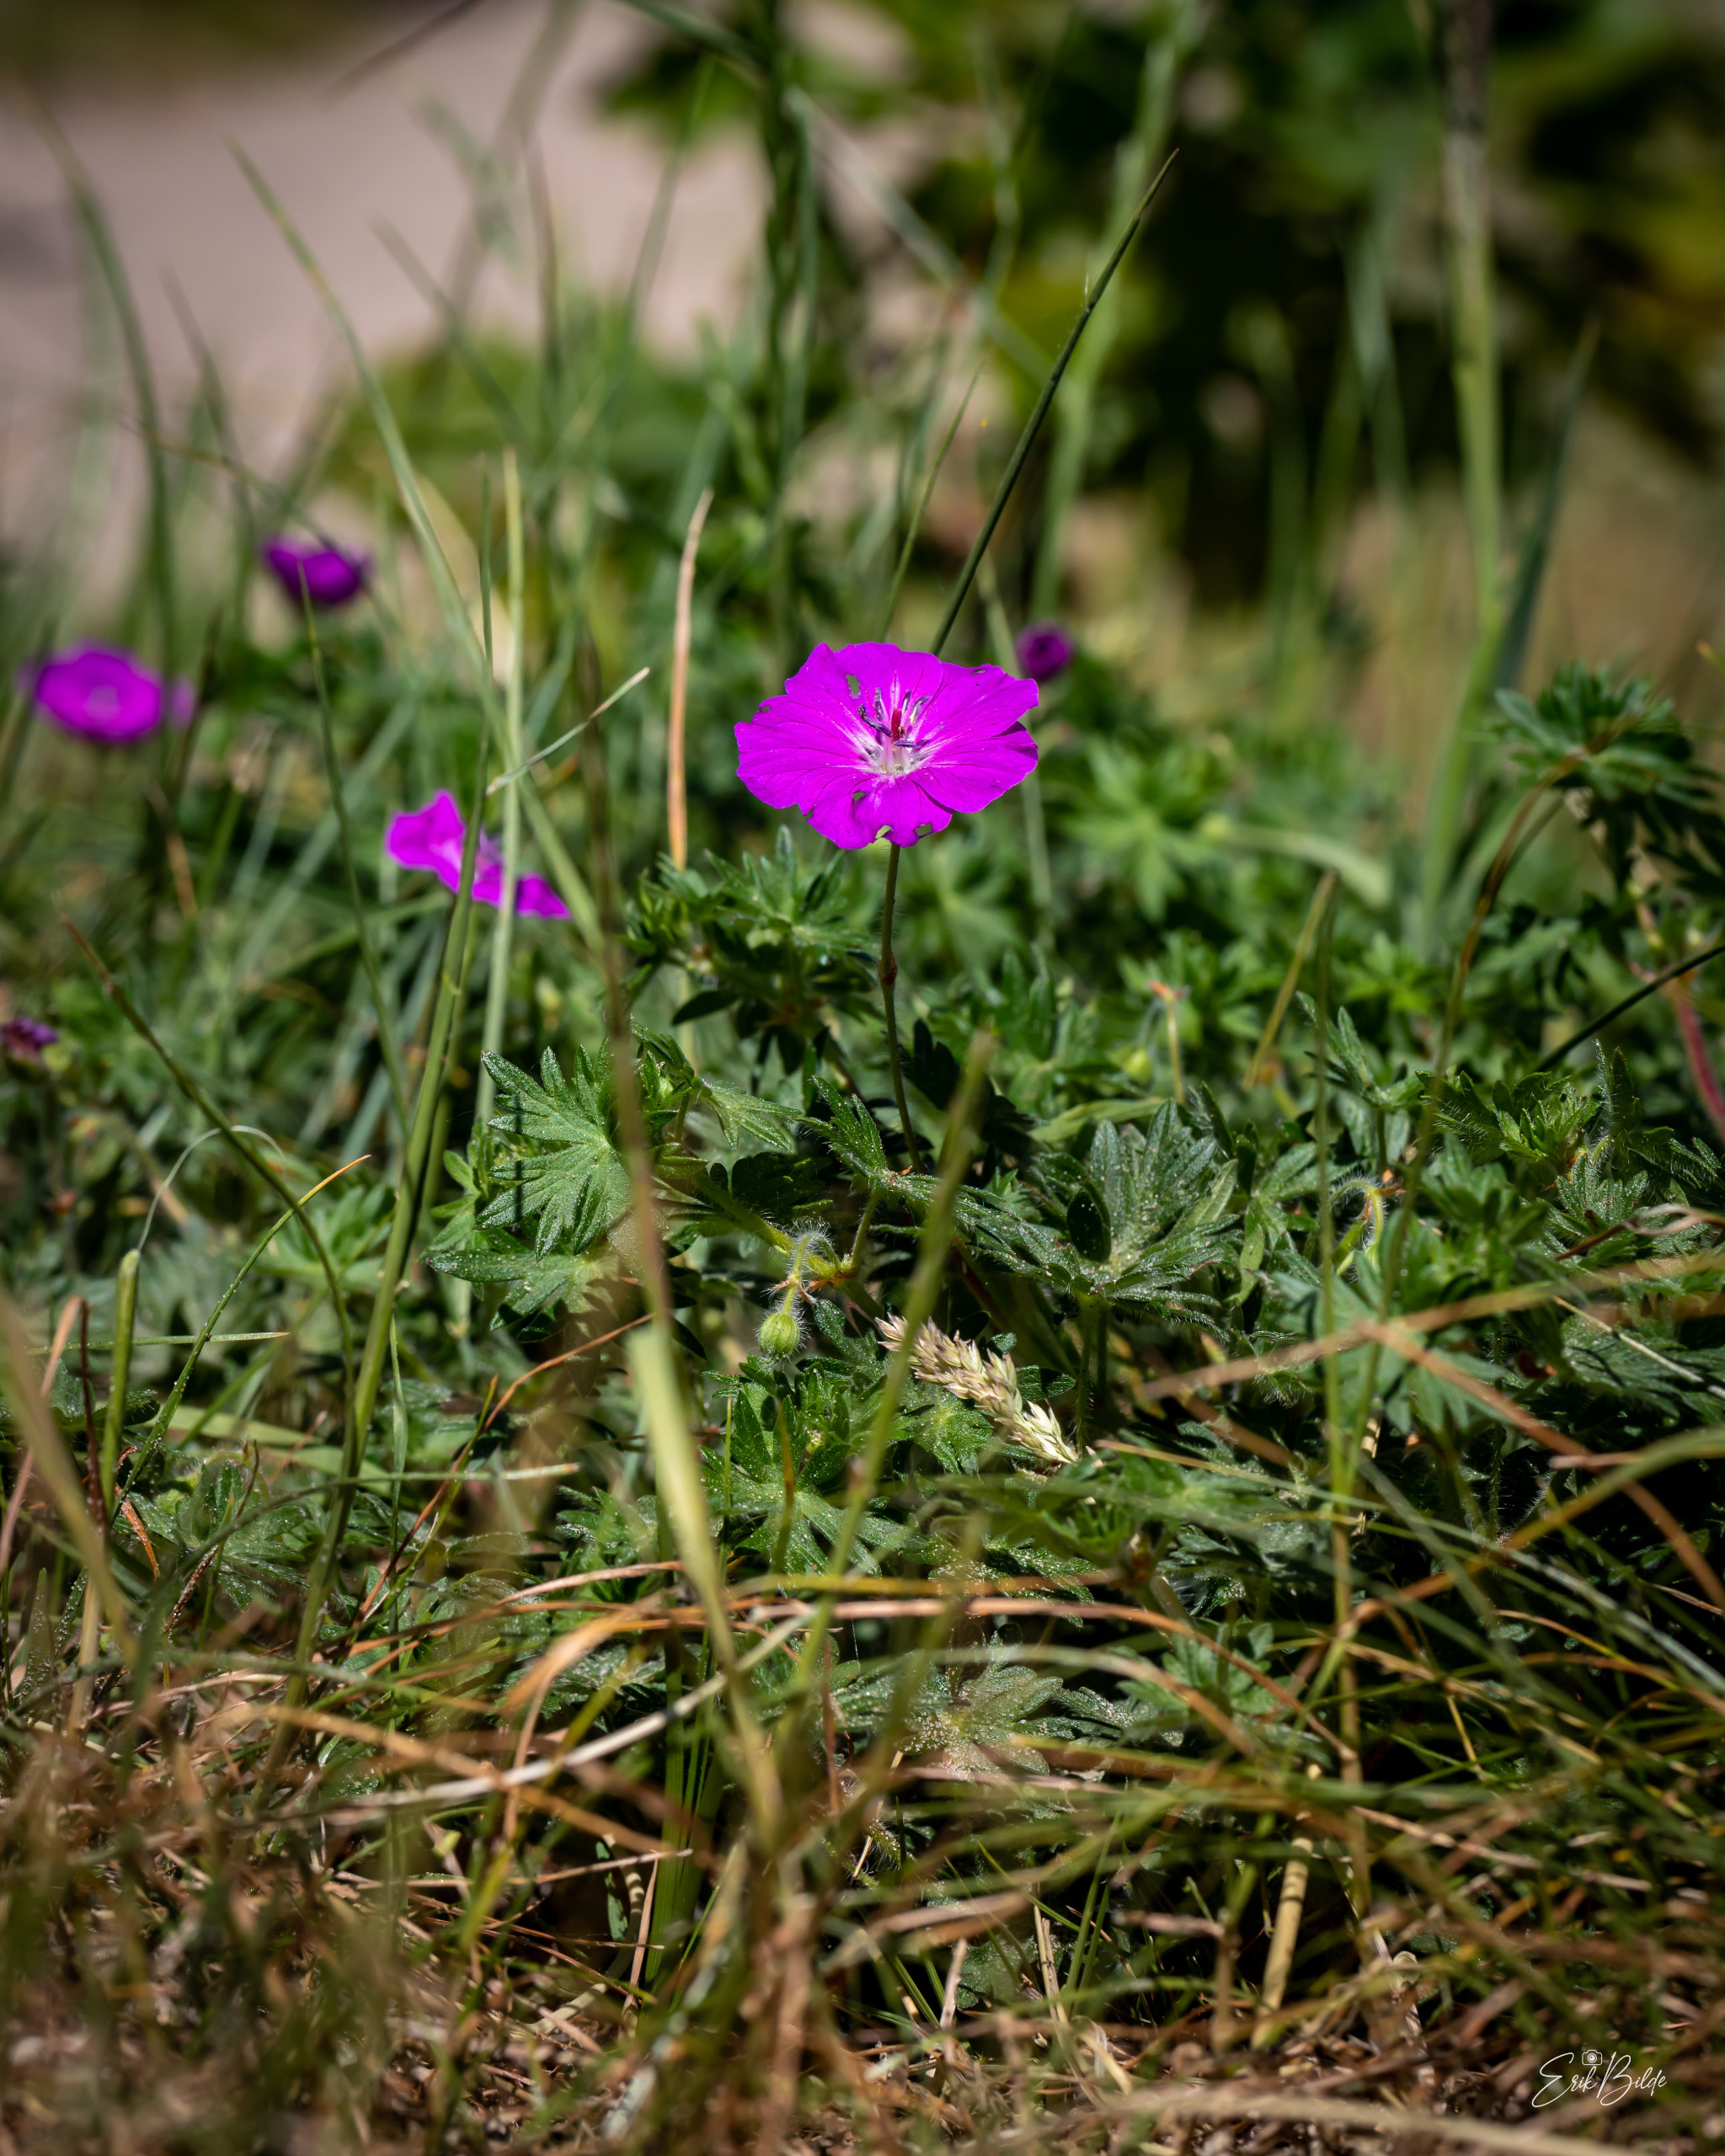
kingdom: Plantae
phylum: Tracheophyta
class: Magnoliopsida
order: Geraniales
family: Geraniaceae
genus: Geranium
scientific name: Geranium sanguineum
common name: Blodrød storkenæb
